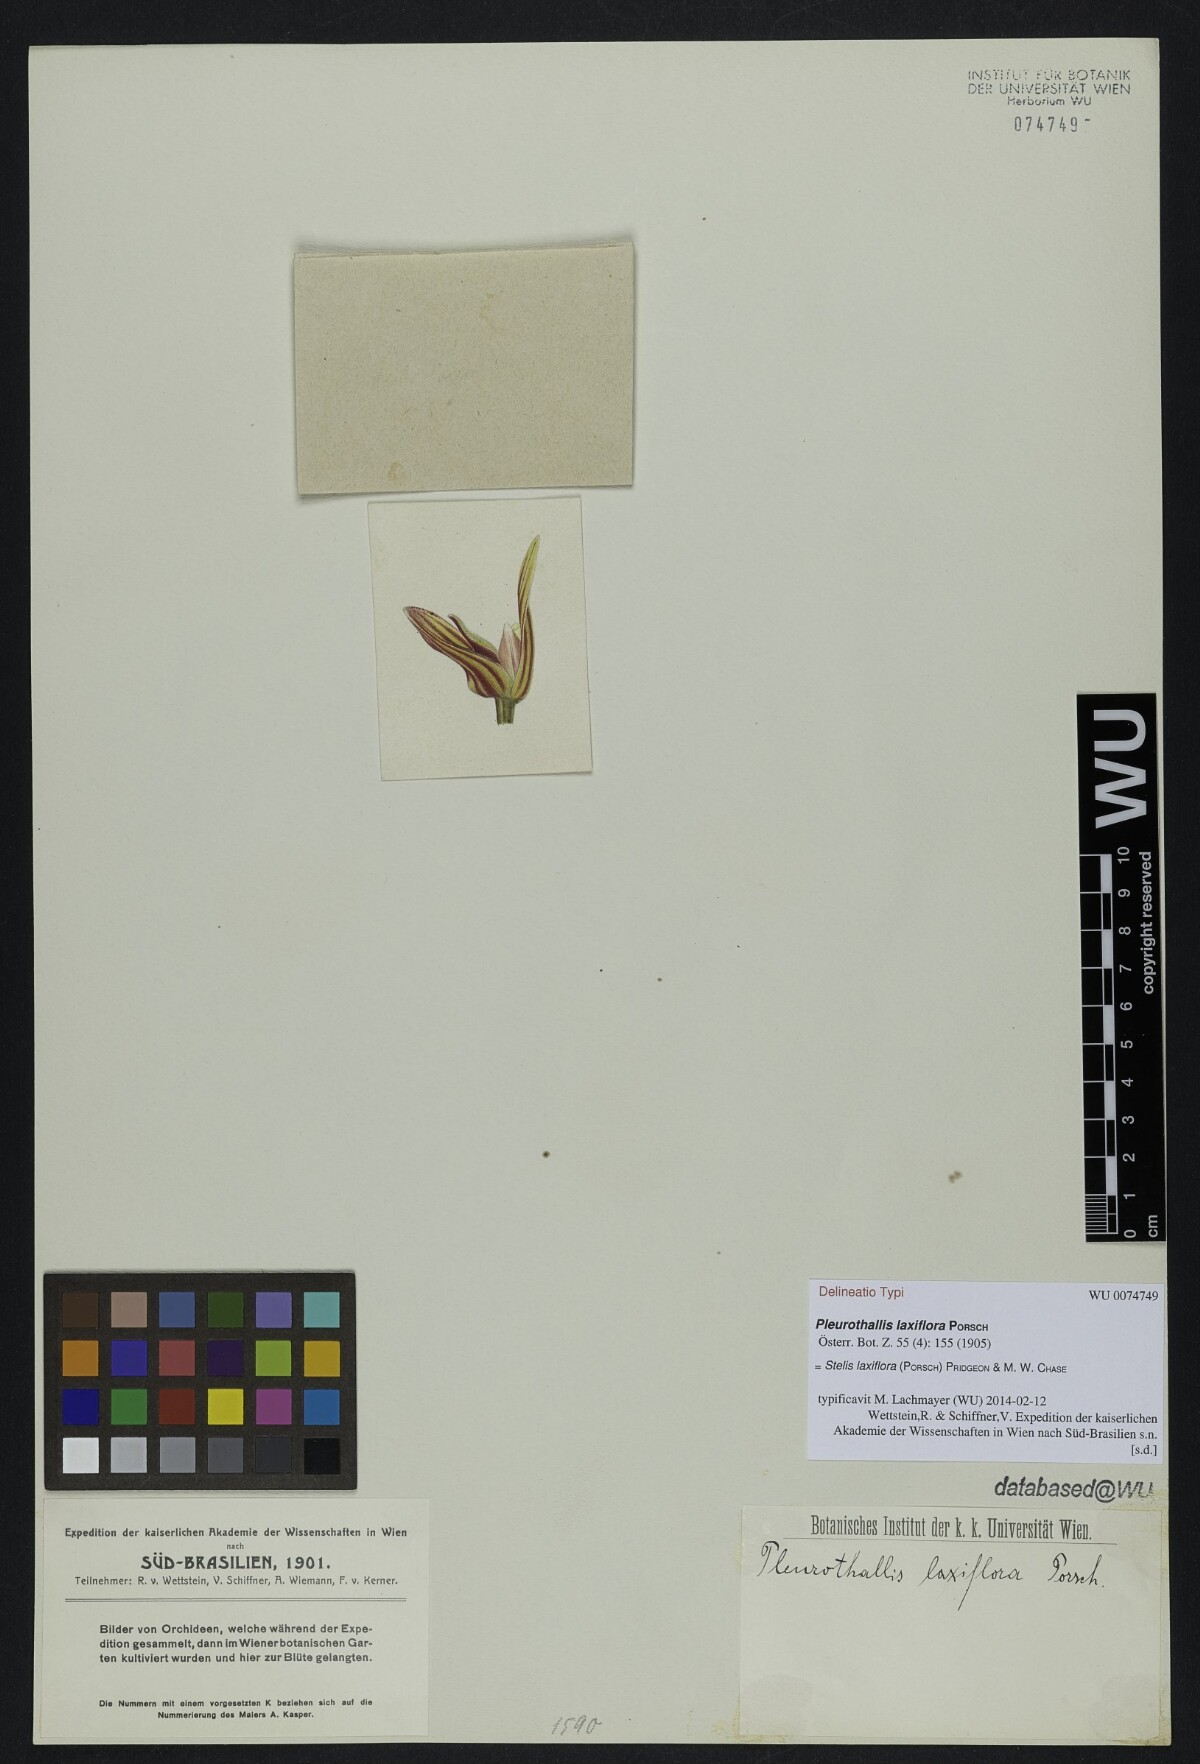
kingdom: Plantae
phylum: Tracheophyta
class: Liliopsida
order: Asparagales
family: Orchidaceae
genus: Pabstiella
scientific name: Pabstiella laxiflora
